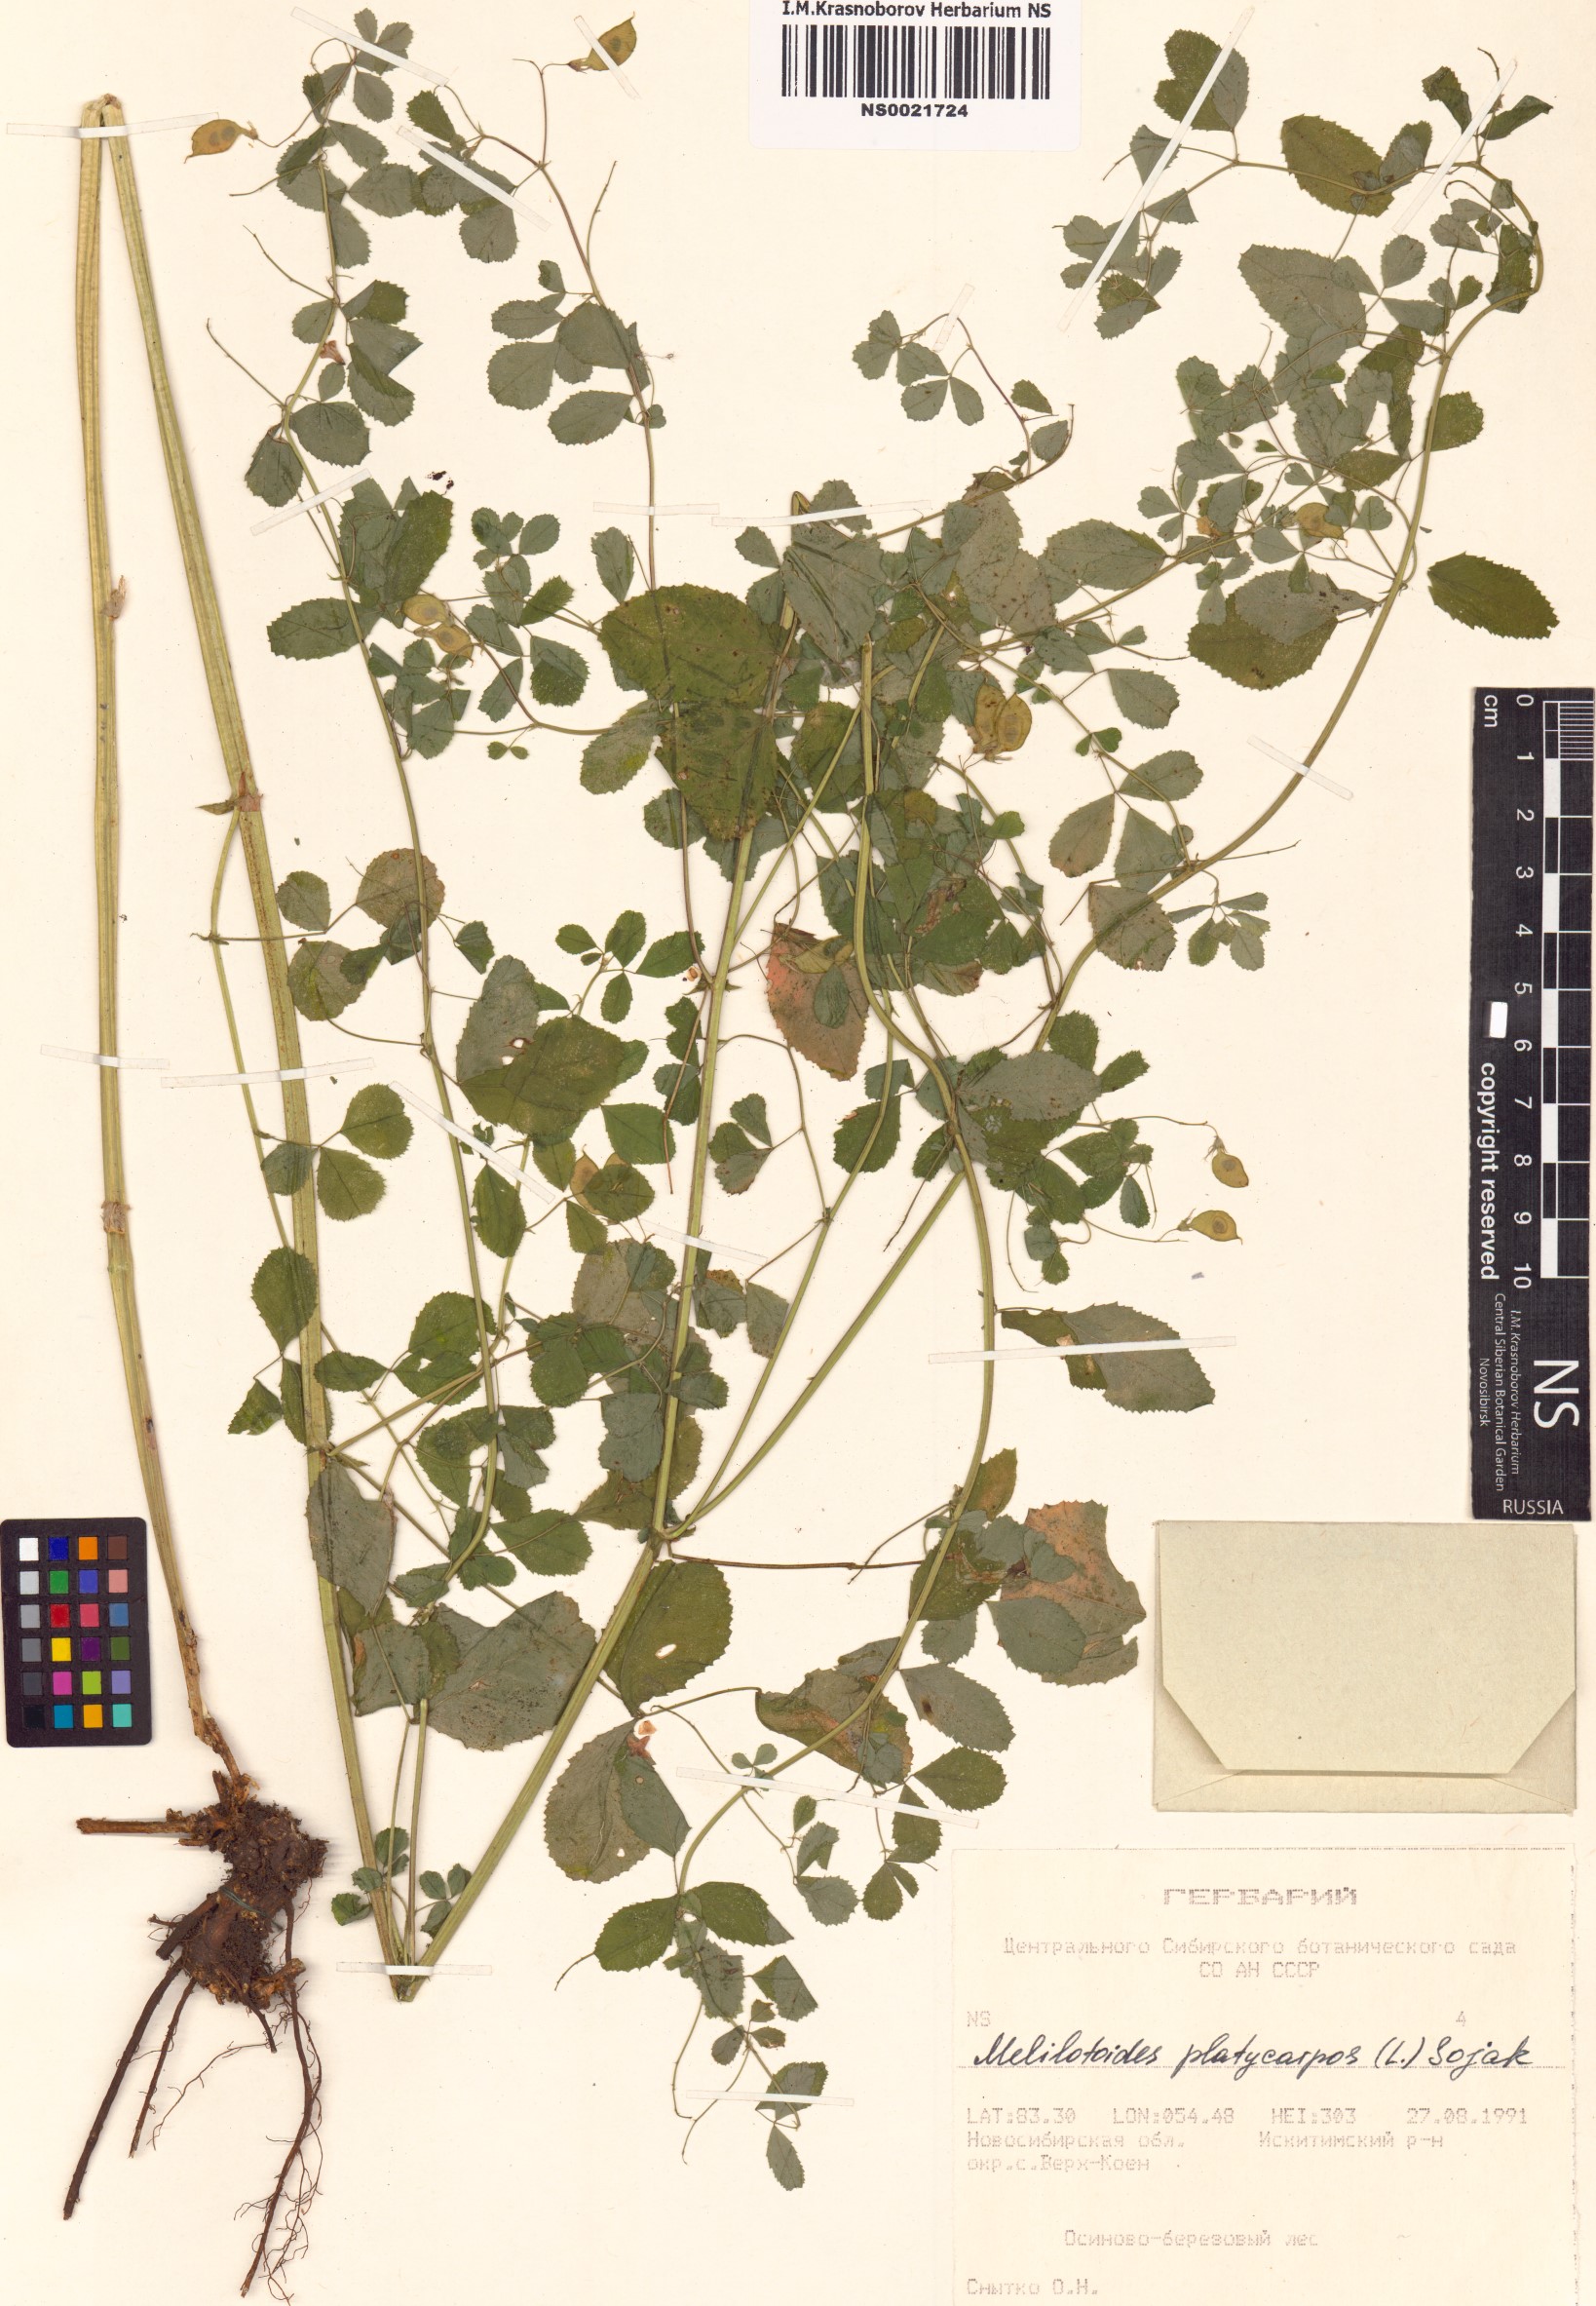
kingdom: Plantae
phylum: Tracheophyta
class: Magnoliopsida
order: Fabales
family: Fabaceae
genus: Medicago
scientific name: Medicago platycarpos
